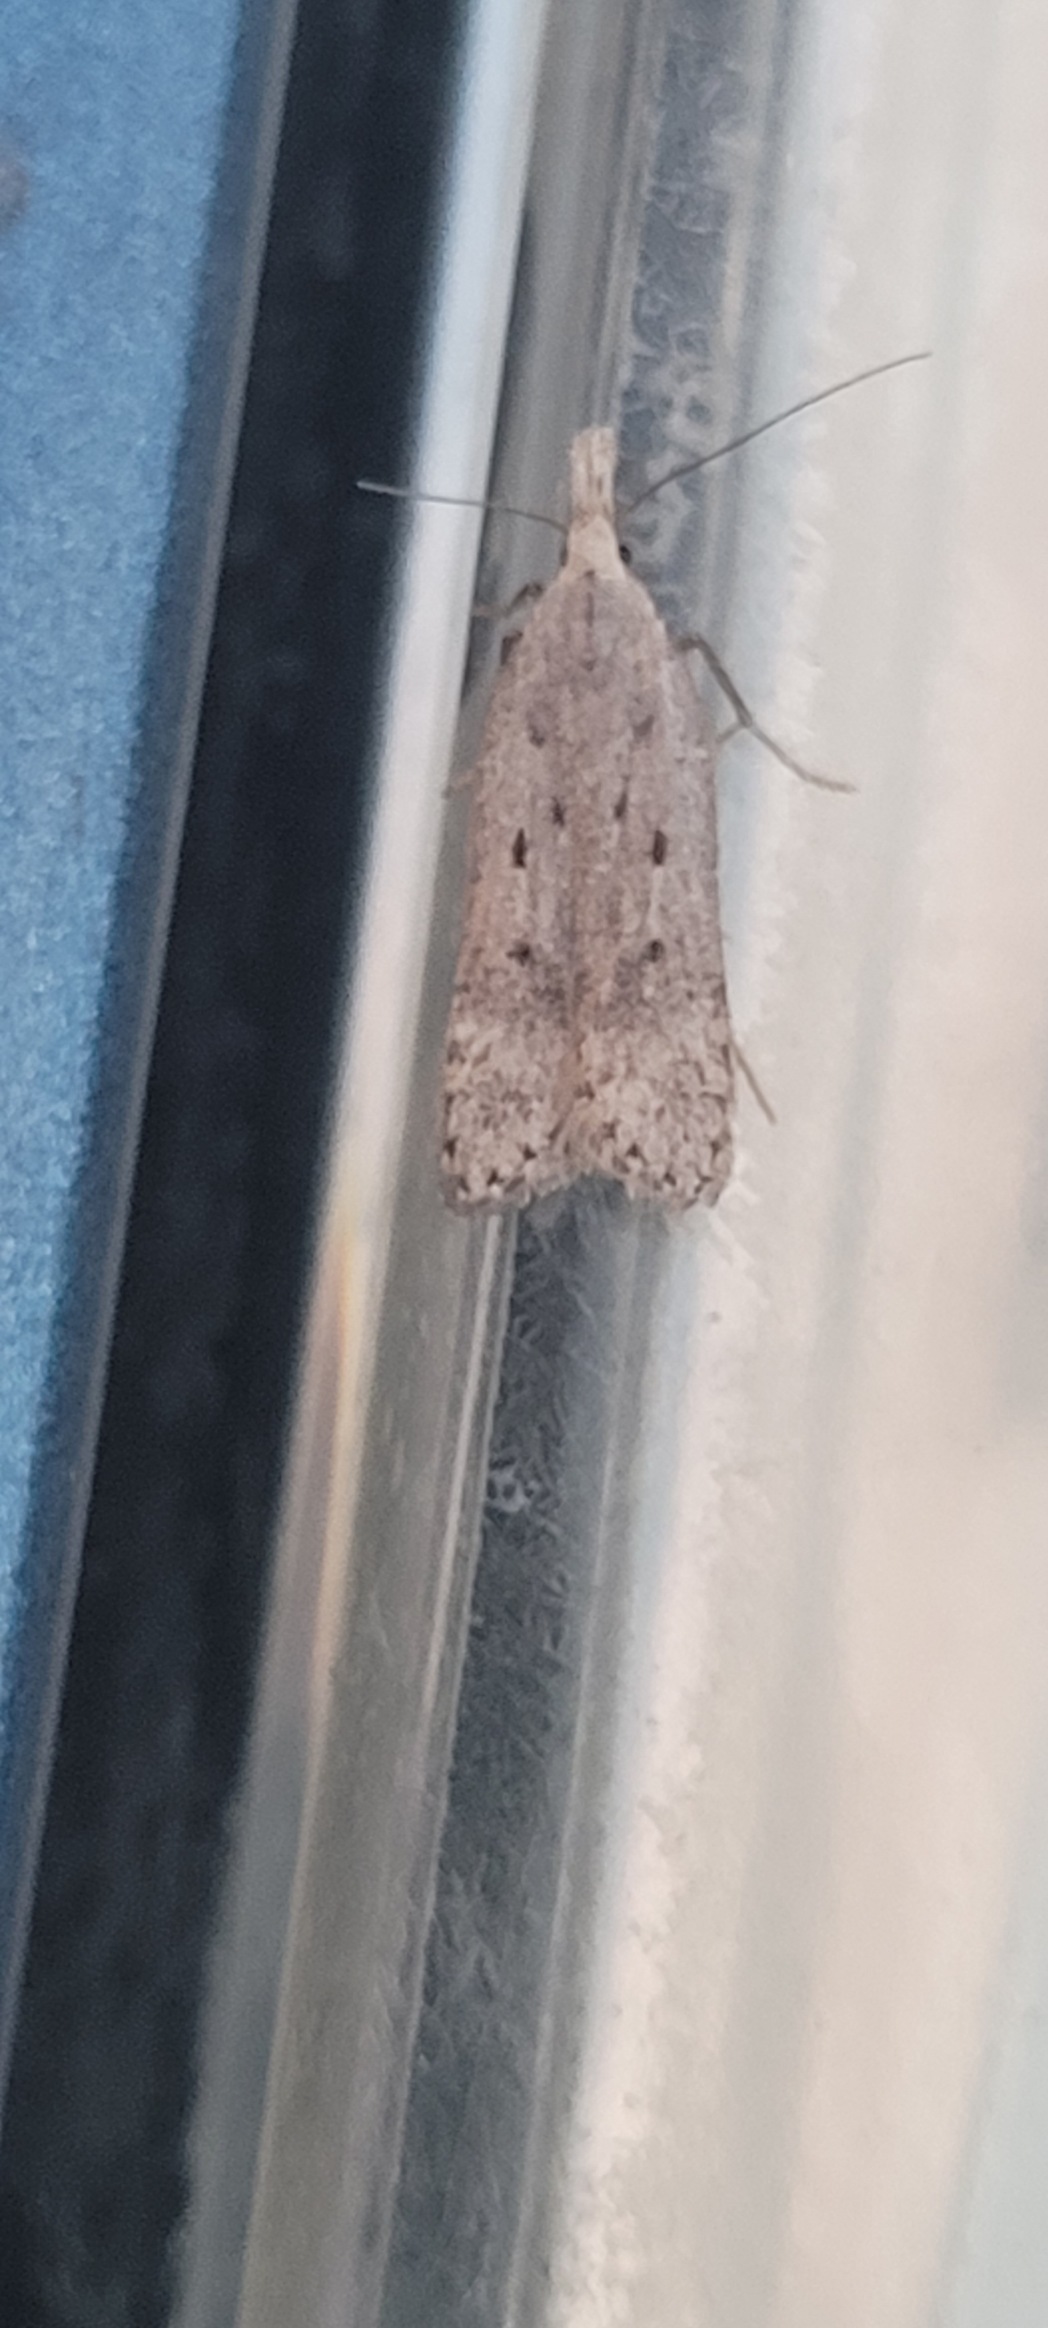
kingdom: Animalia
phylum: Arthropoda
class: Insecta
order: Lepidoptera
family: Gelechiidae
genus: Dichomeris
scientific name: Dichomeris juniperella
